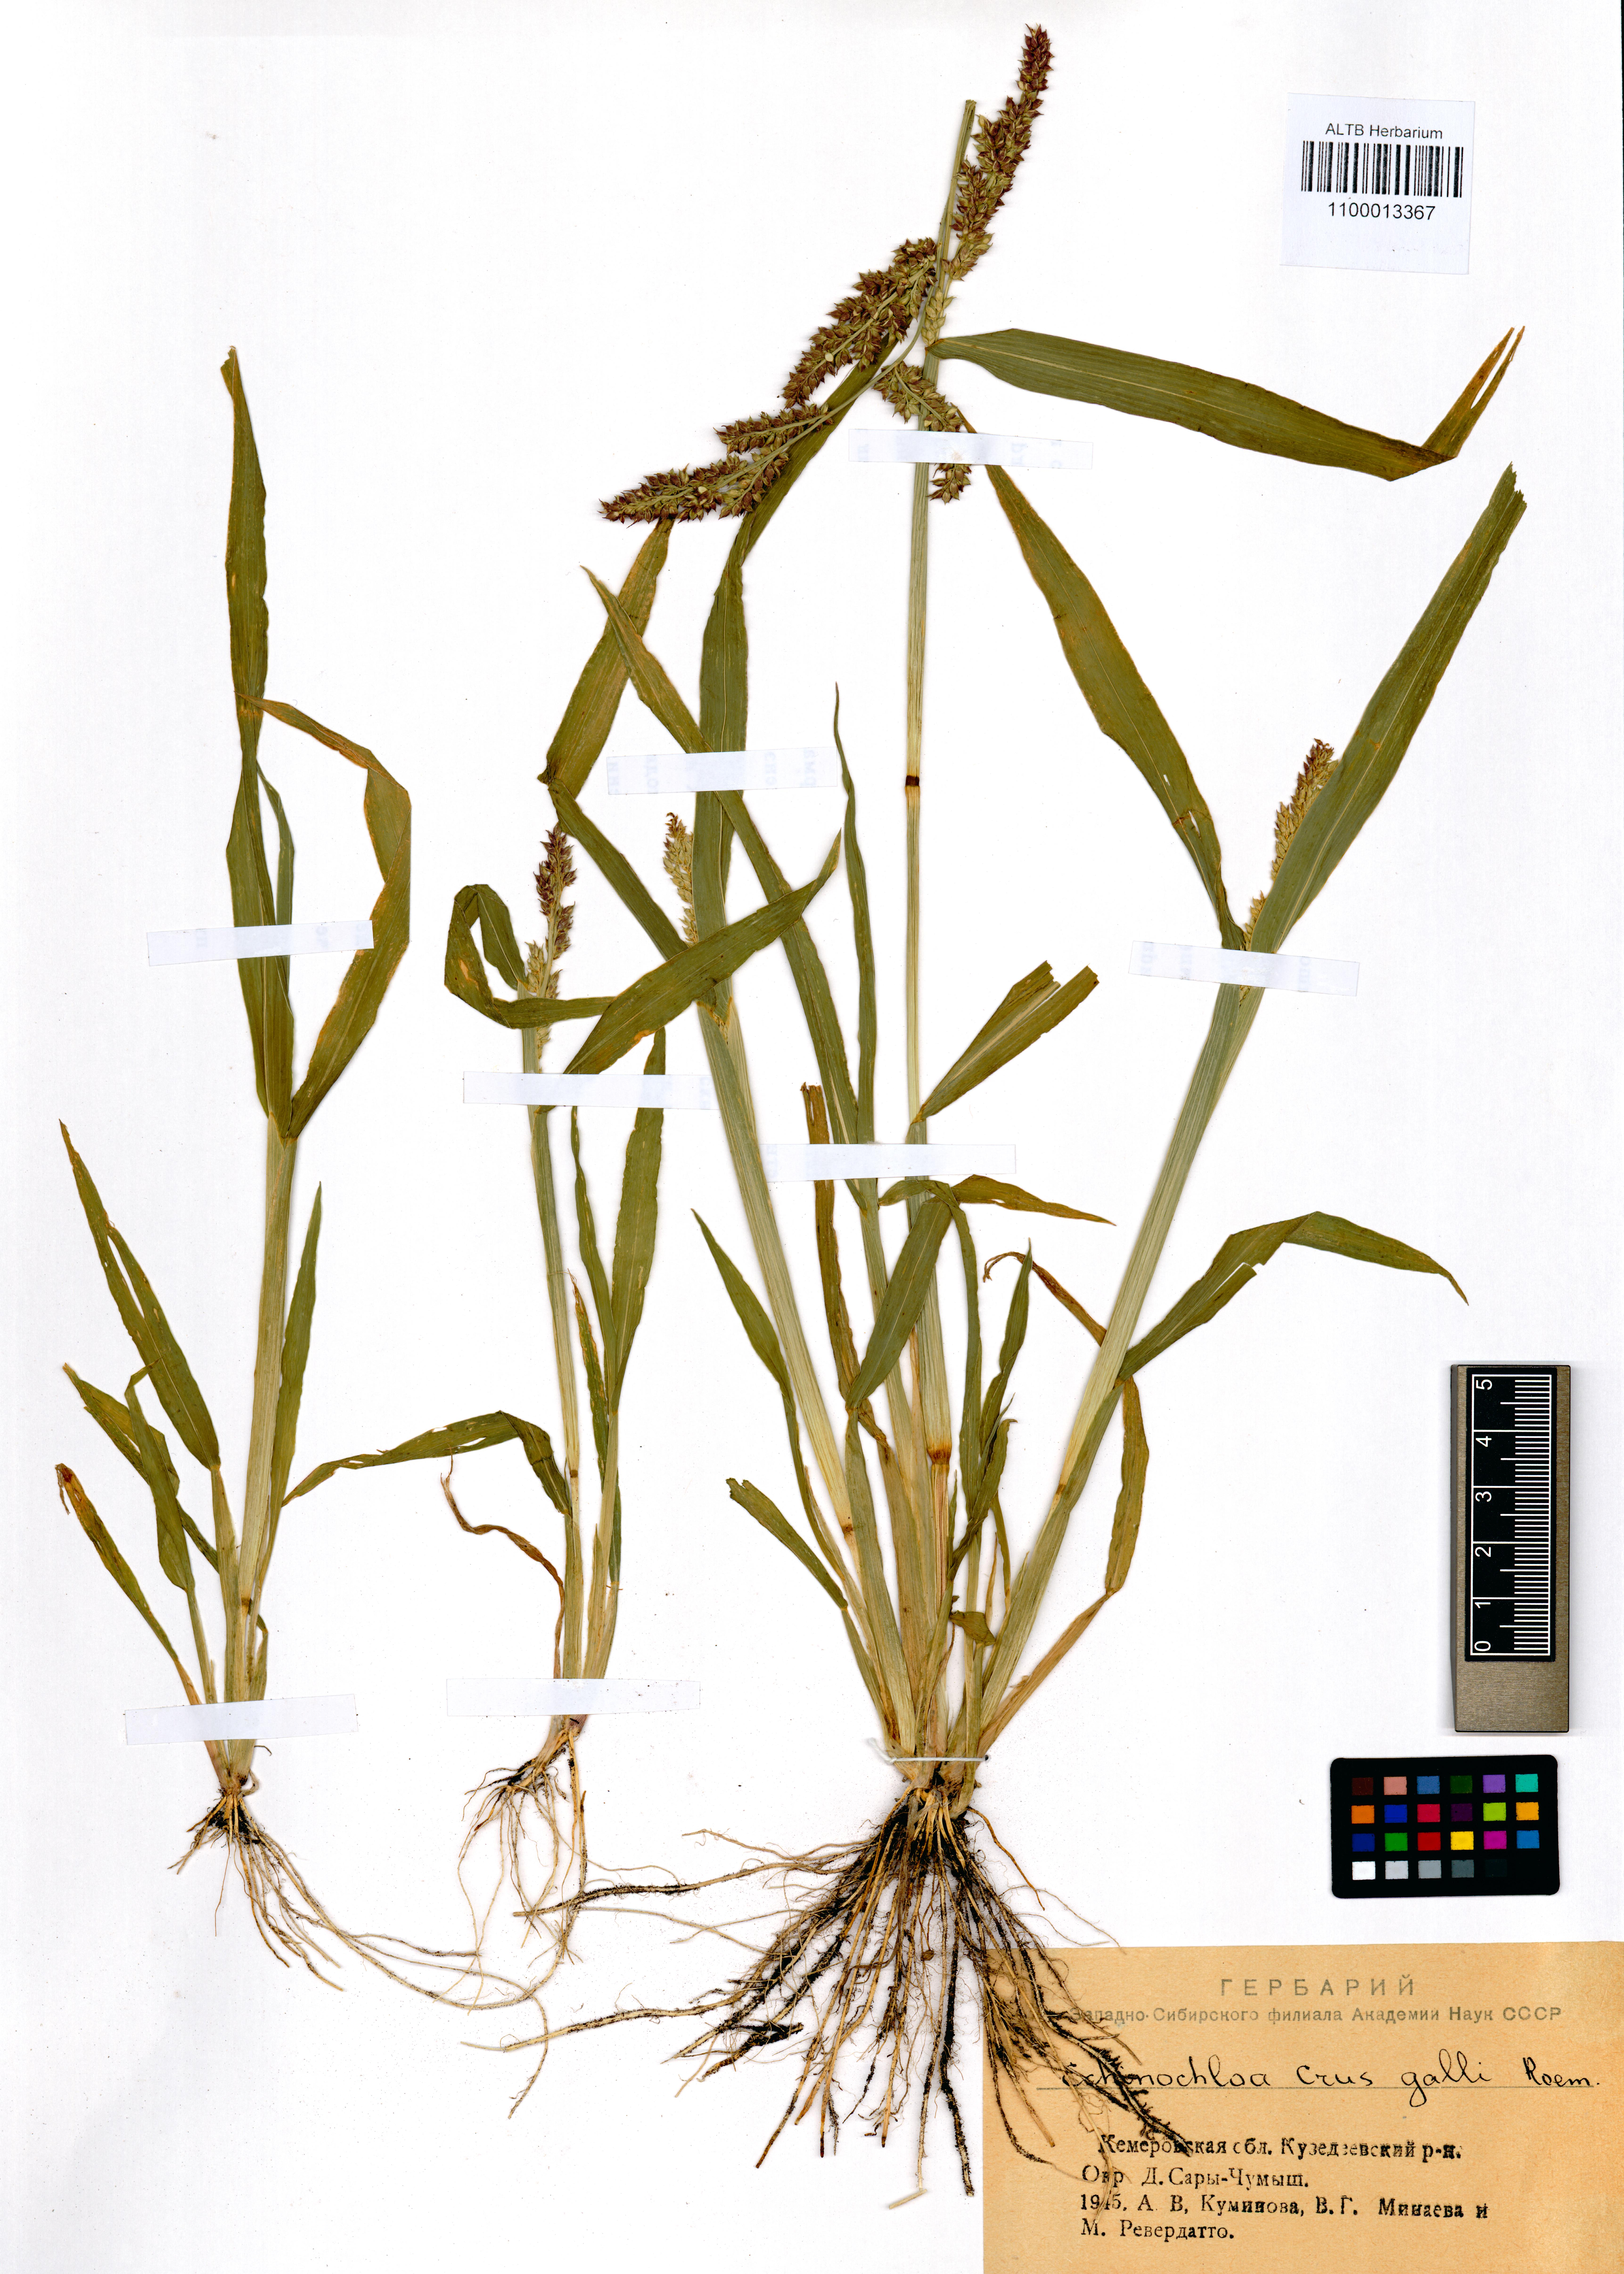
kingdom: Plantae
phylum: Tracheophyta
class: Liliopsida
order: Poales
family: Poaceae
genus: Echinochloa
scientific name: Echinochloa crus-galli
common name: Cockspur
